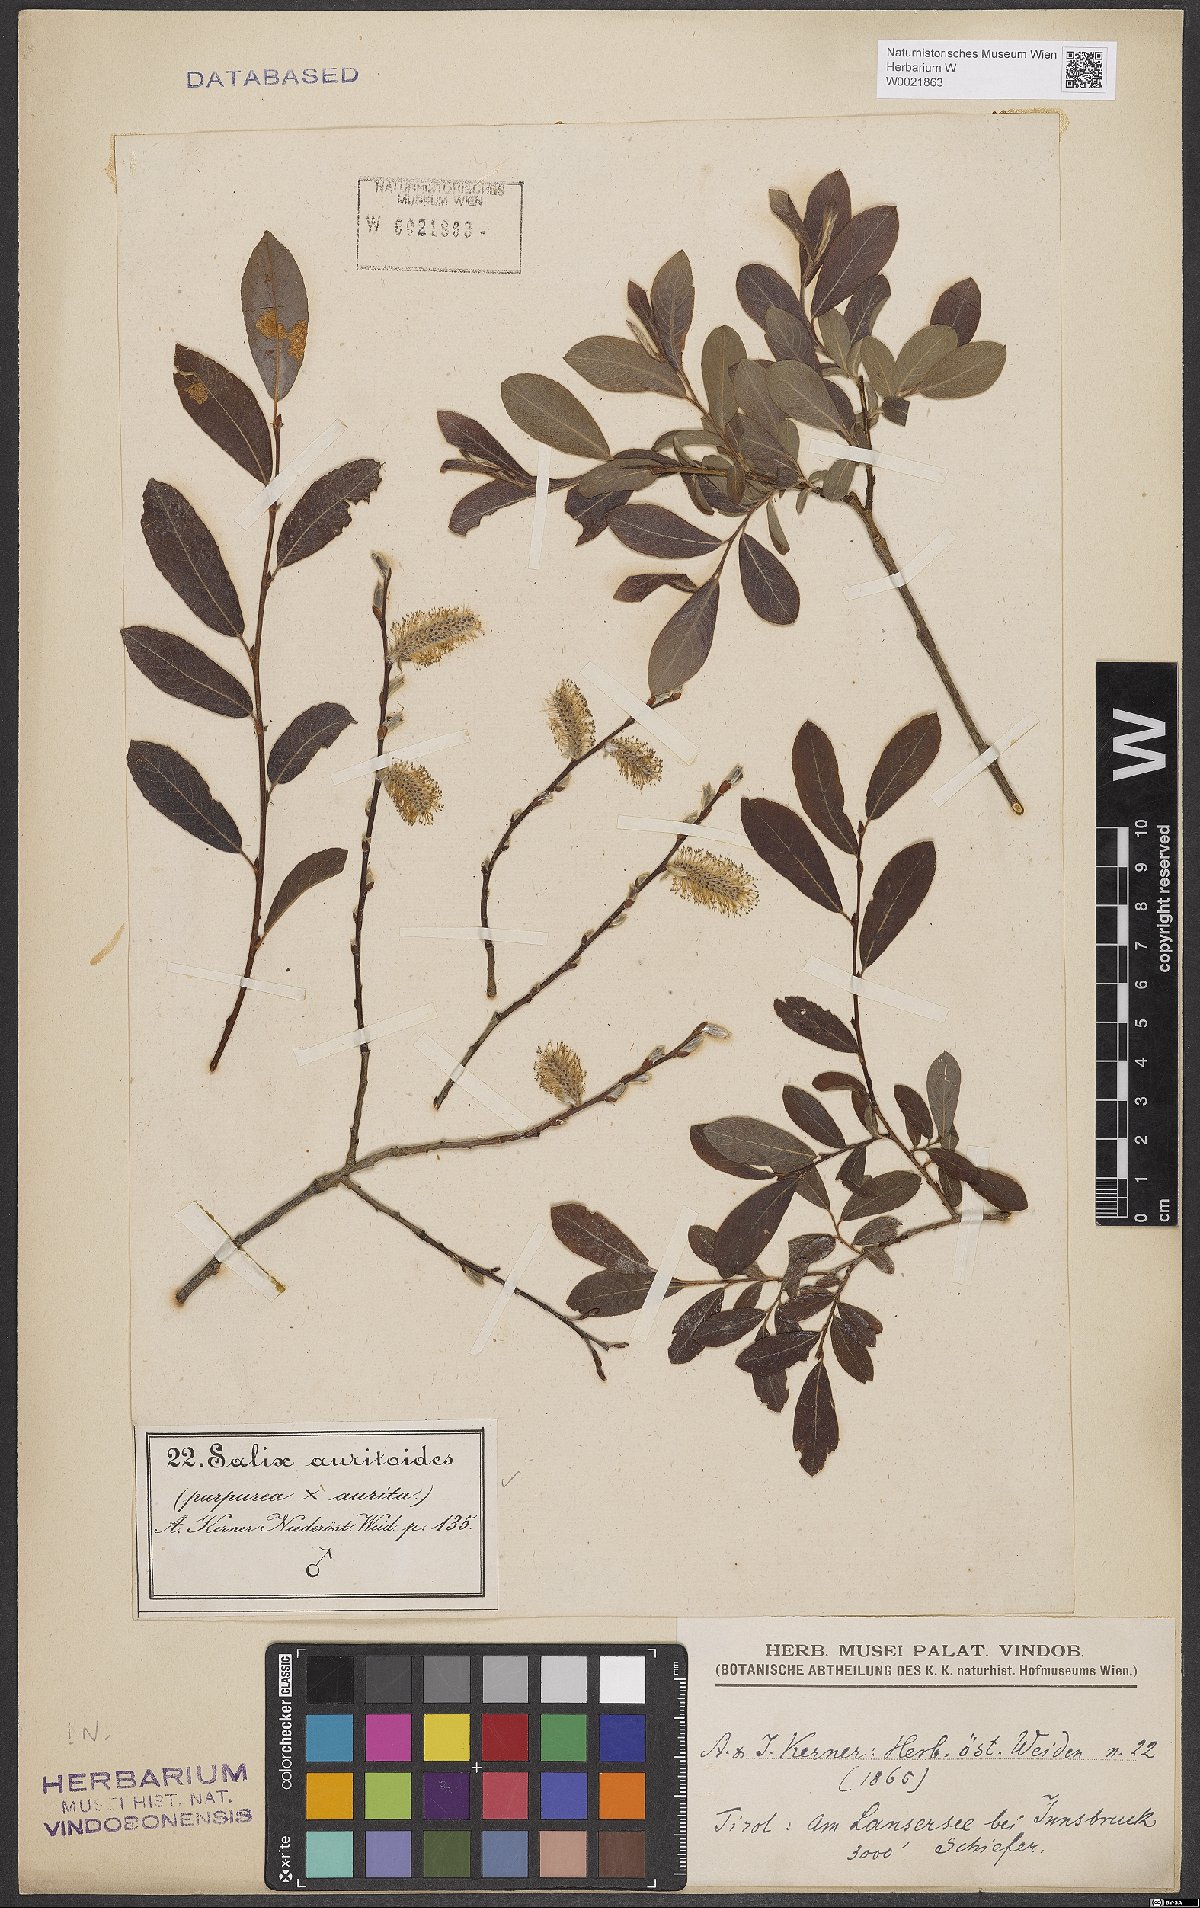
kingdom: Plantae
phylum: Tracheophyta
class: Magnoliopsida
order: Malpighiales
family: Salicaceae
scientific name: Salicaceae
